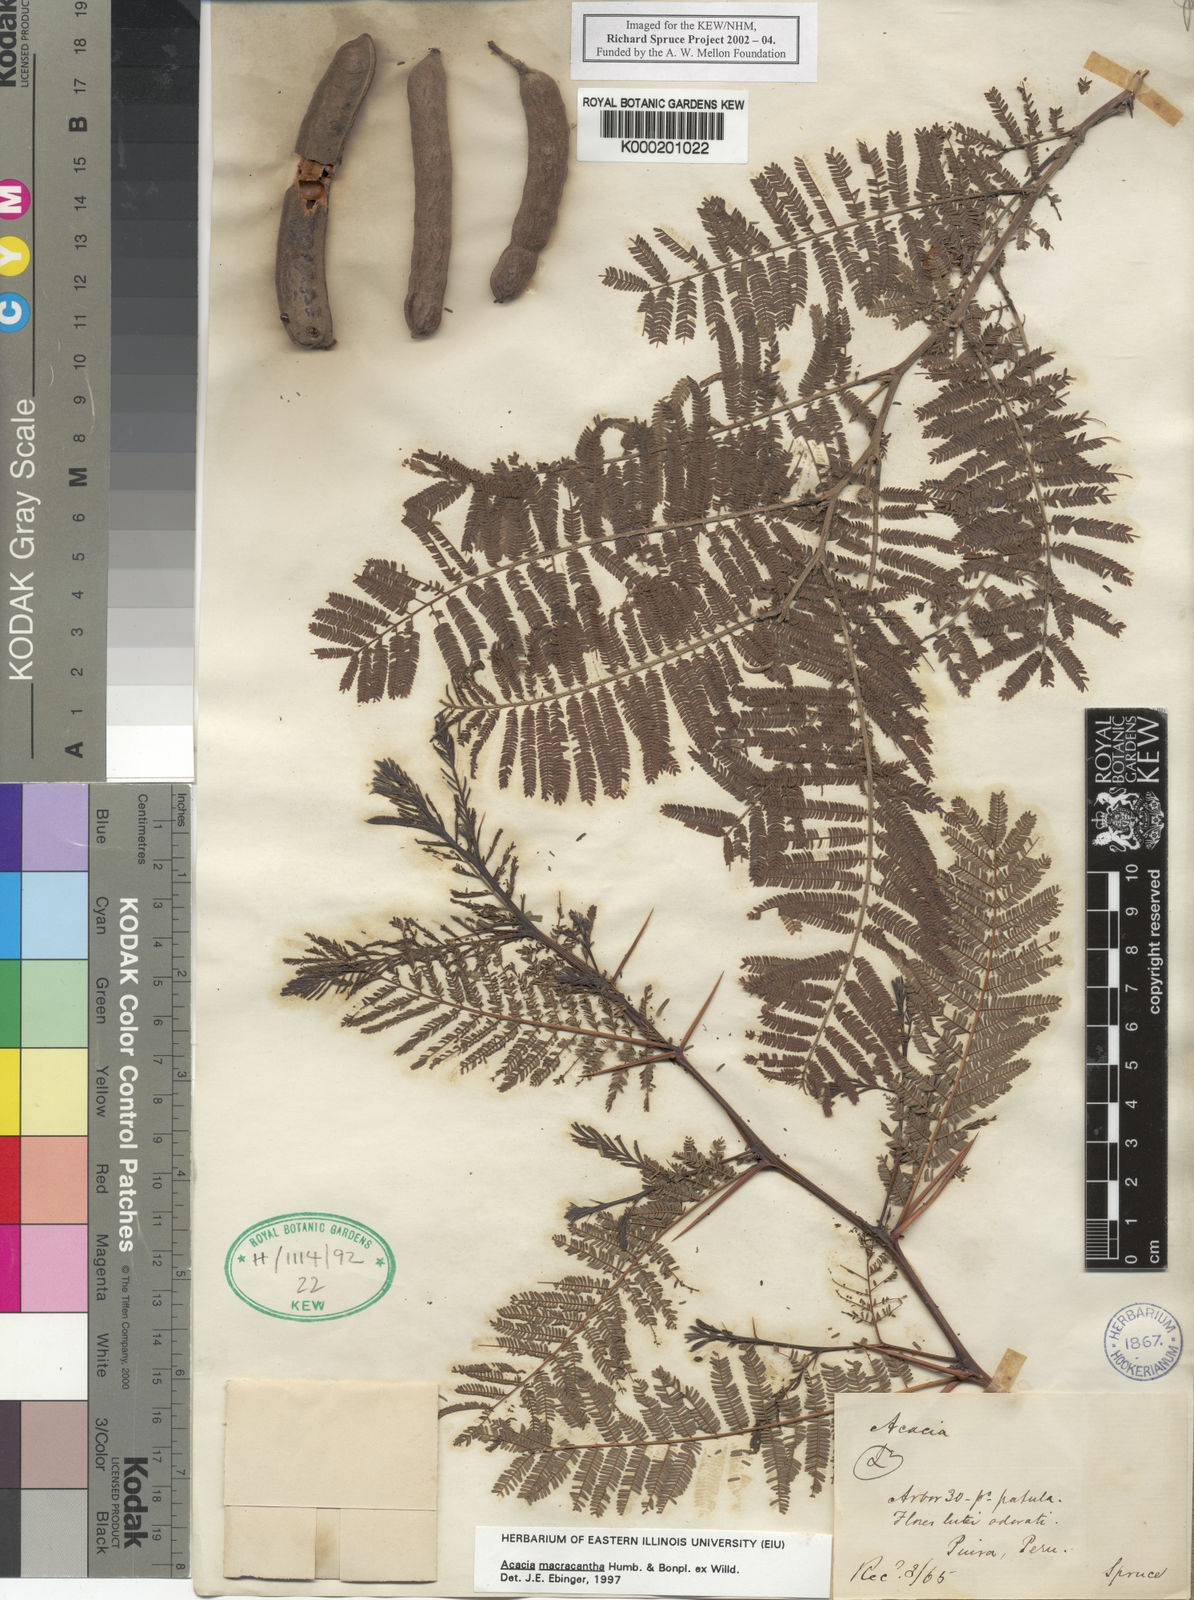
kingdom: Plantae
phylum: Tracheophyta
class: Magnoliopsida
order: Fabales
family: Fabaceae
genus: Vachellia
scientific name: Vachellia macracantha
